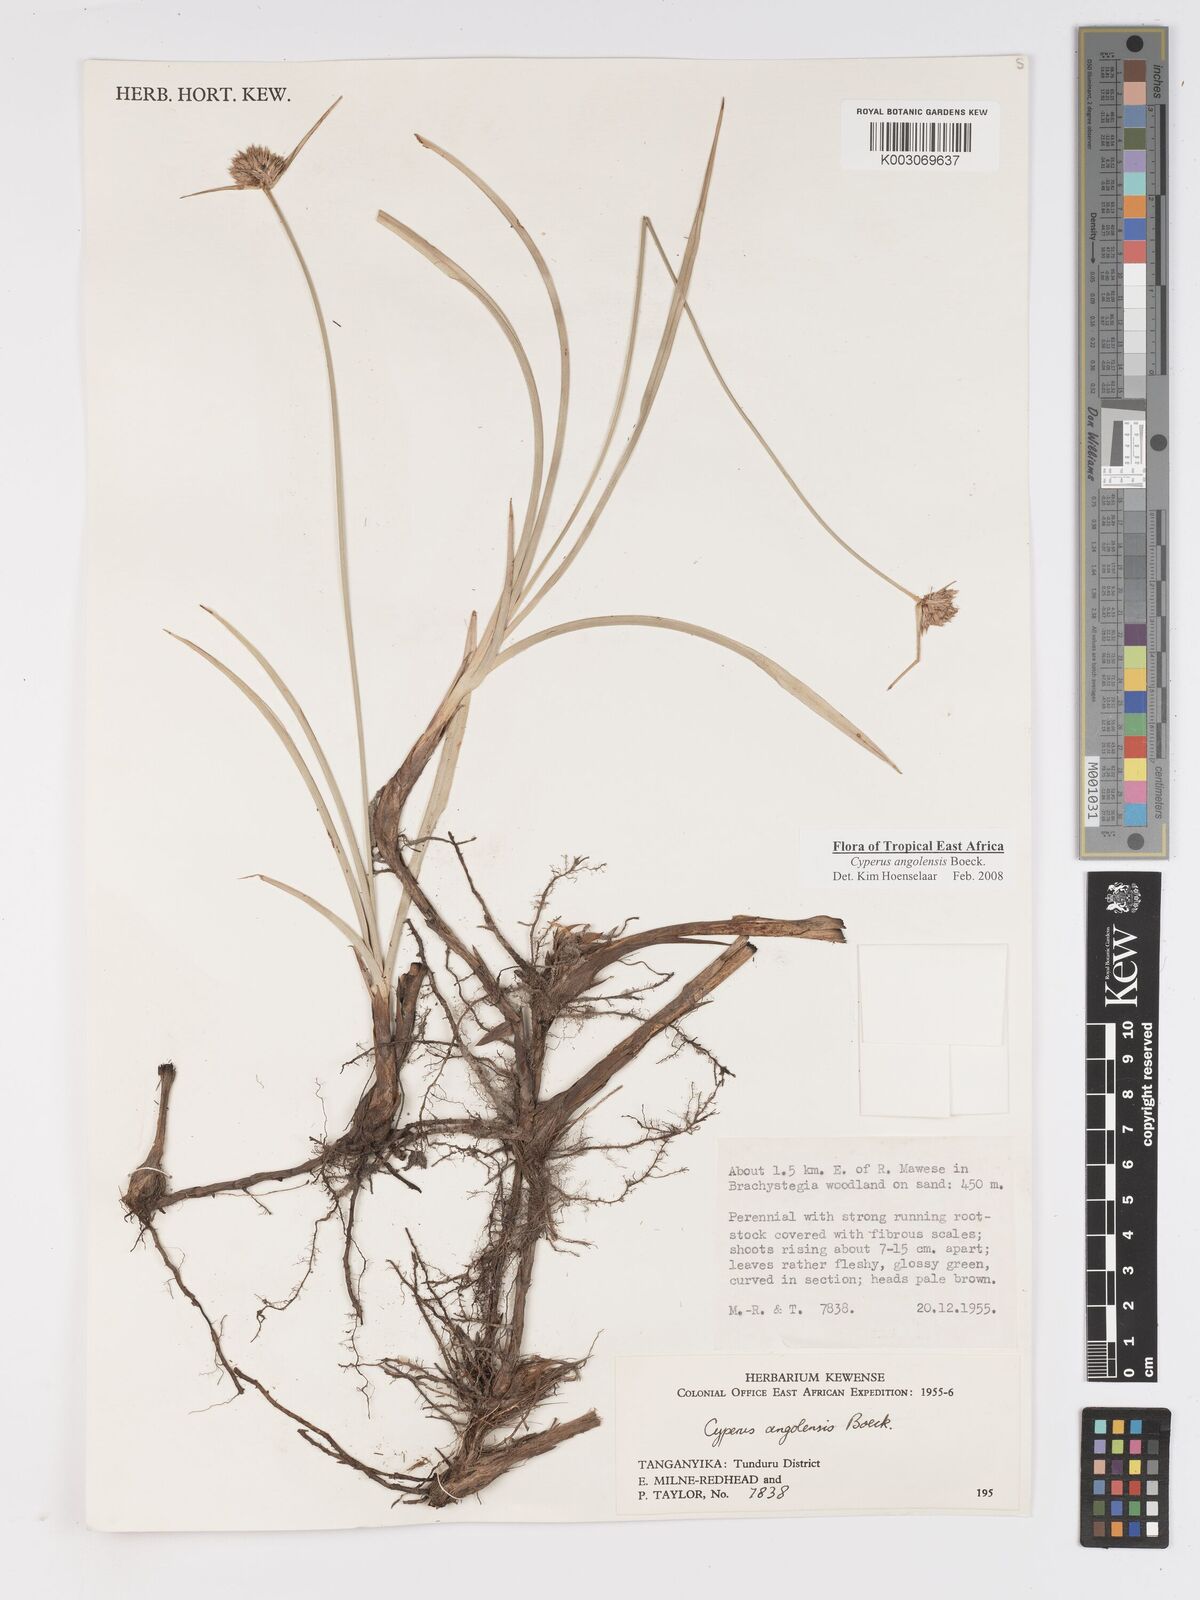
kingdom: Plantae
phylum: Tracheophyta
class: Liliopsida
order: Poales
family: Cyperaceae
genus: Cyperus
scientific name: Cyperus angolensis
